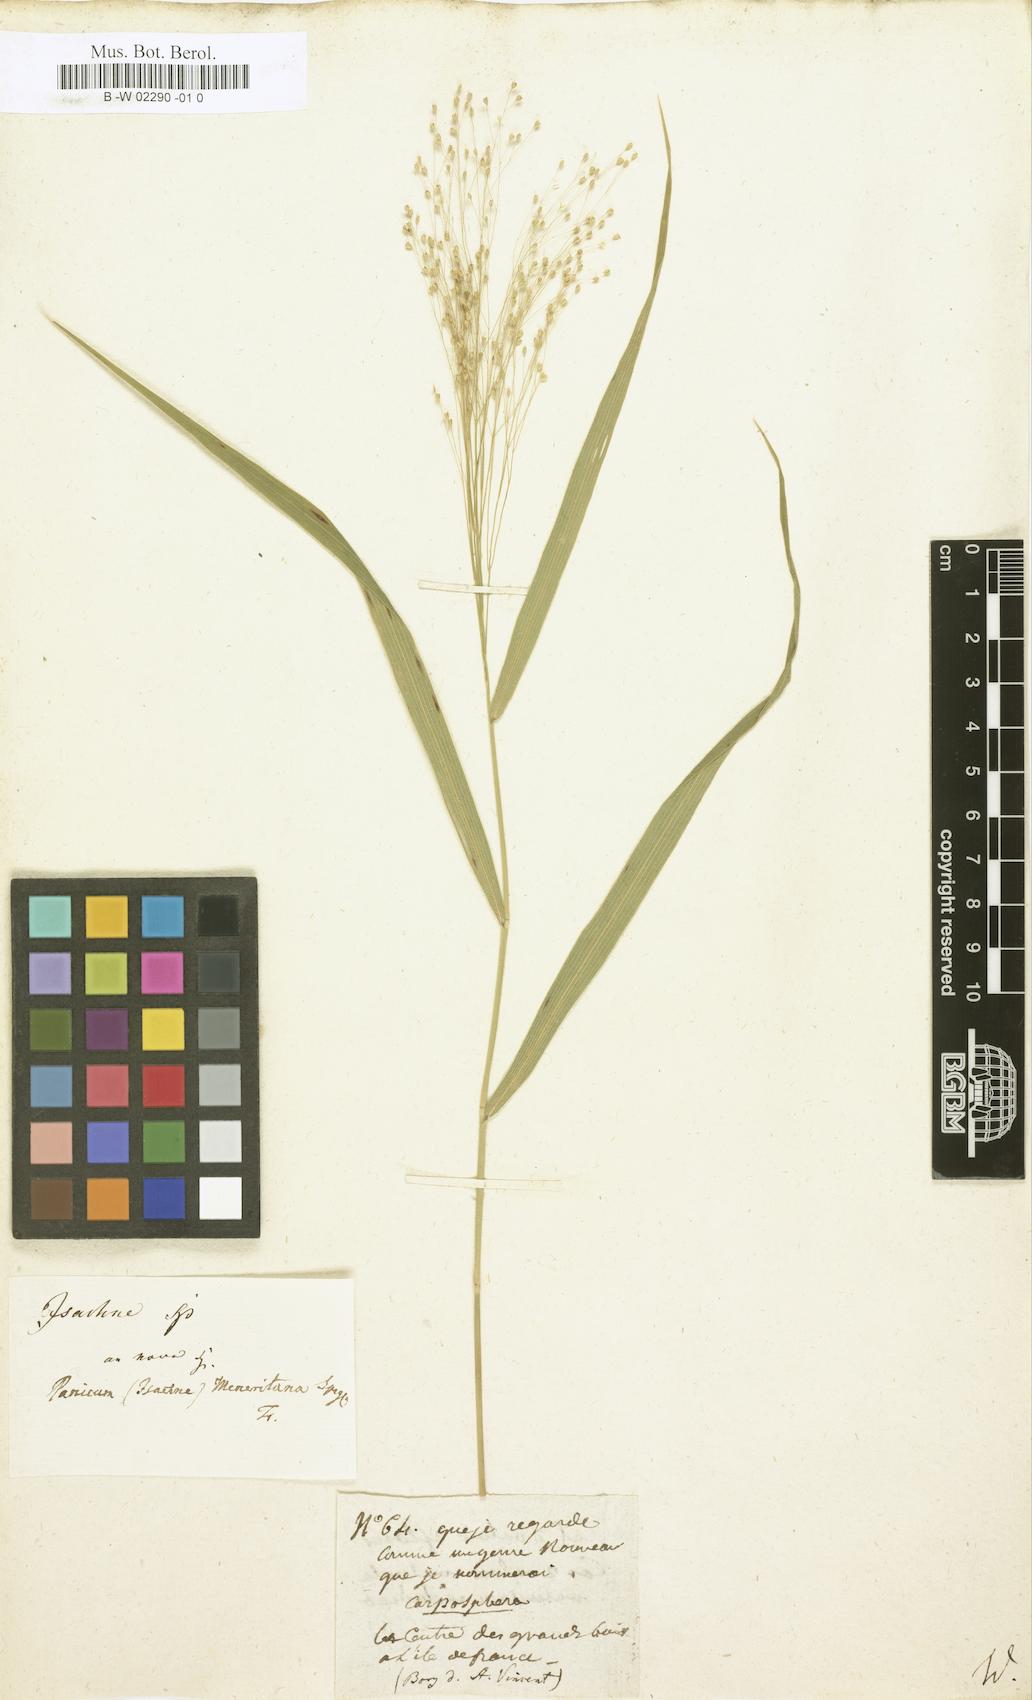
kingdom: Plantae
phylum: Tracheophyta
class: Liliopsida
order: Poales
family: Poaceae
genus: Isachne
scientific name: Isachne
